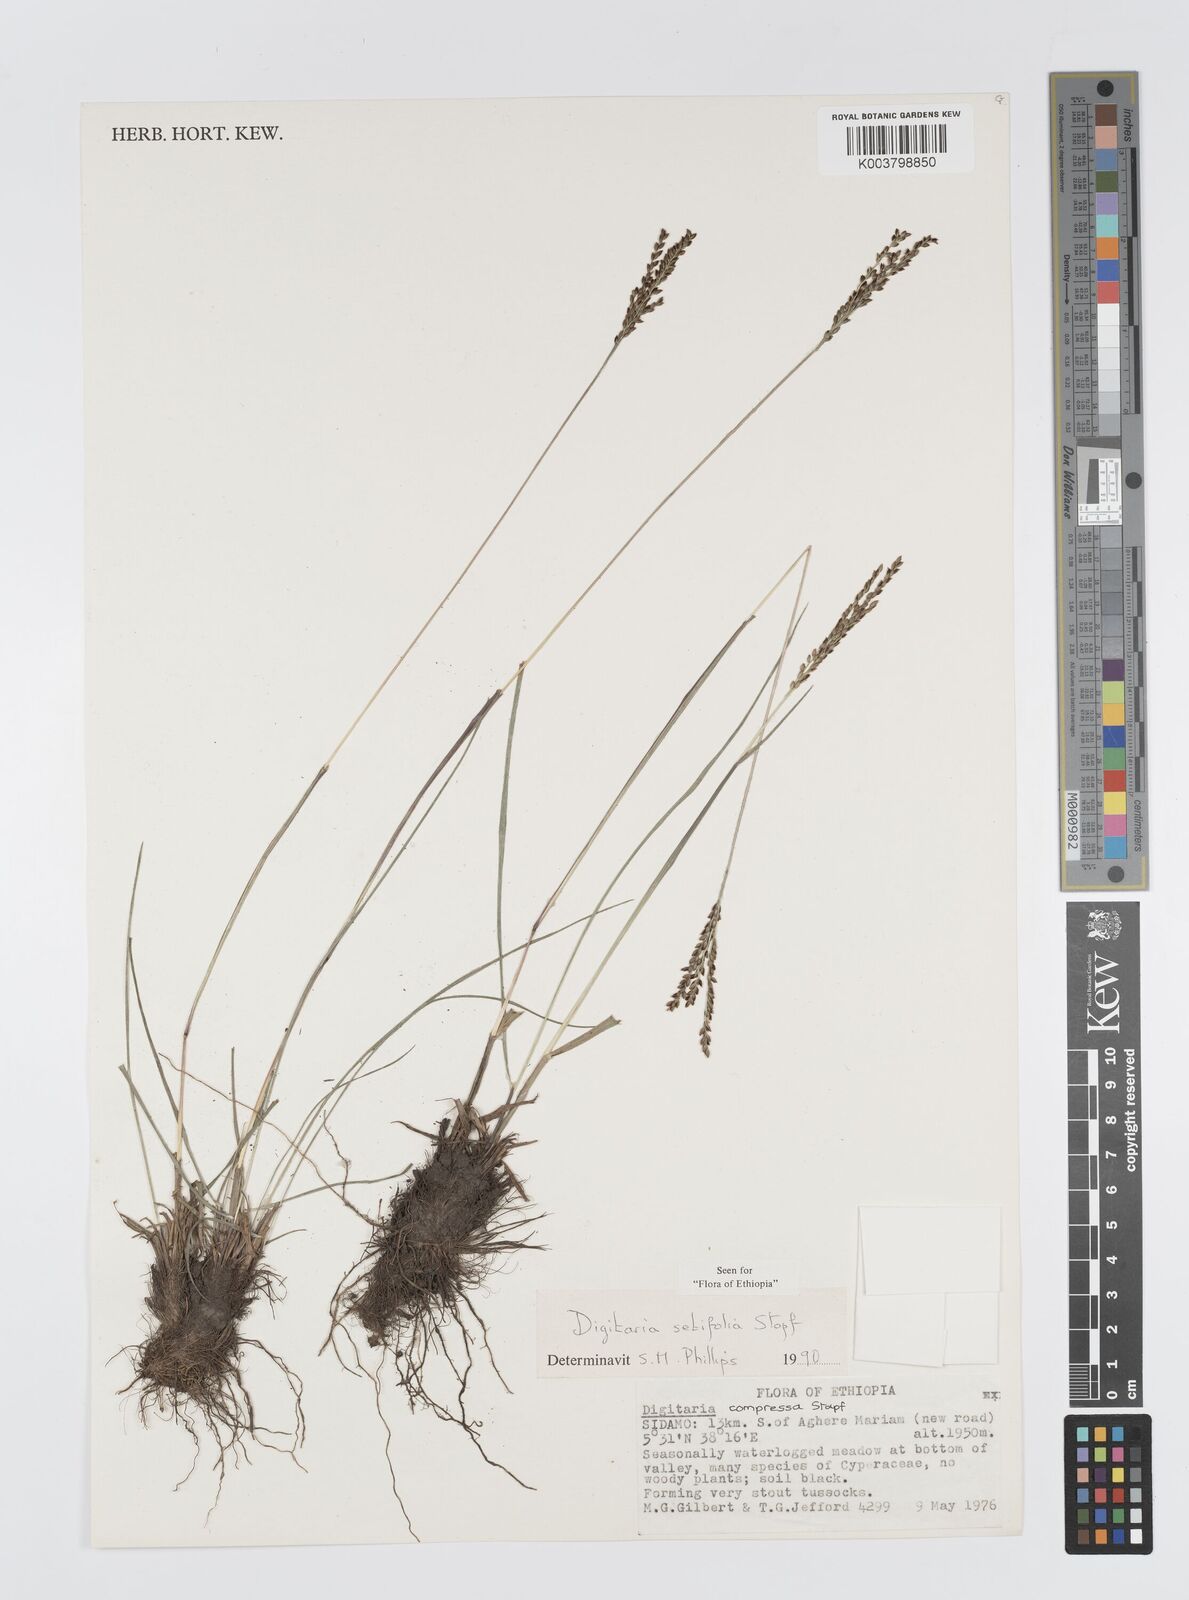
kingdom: Plantae
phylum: Tracheophyta
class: Liliopsida
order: Poales
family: Poaceae
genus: Digitaria
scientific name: Digitaria setifolia
